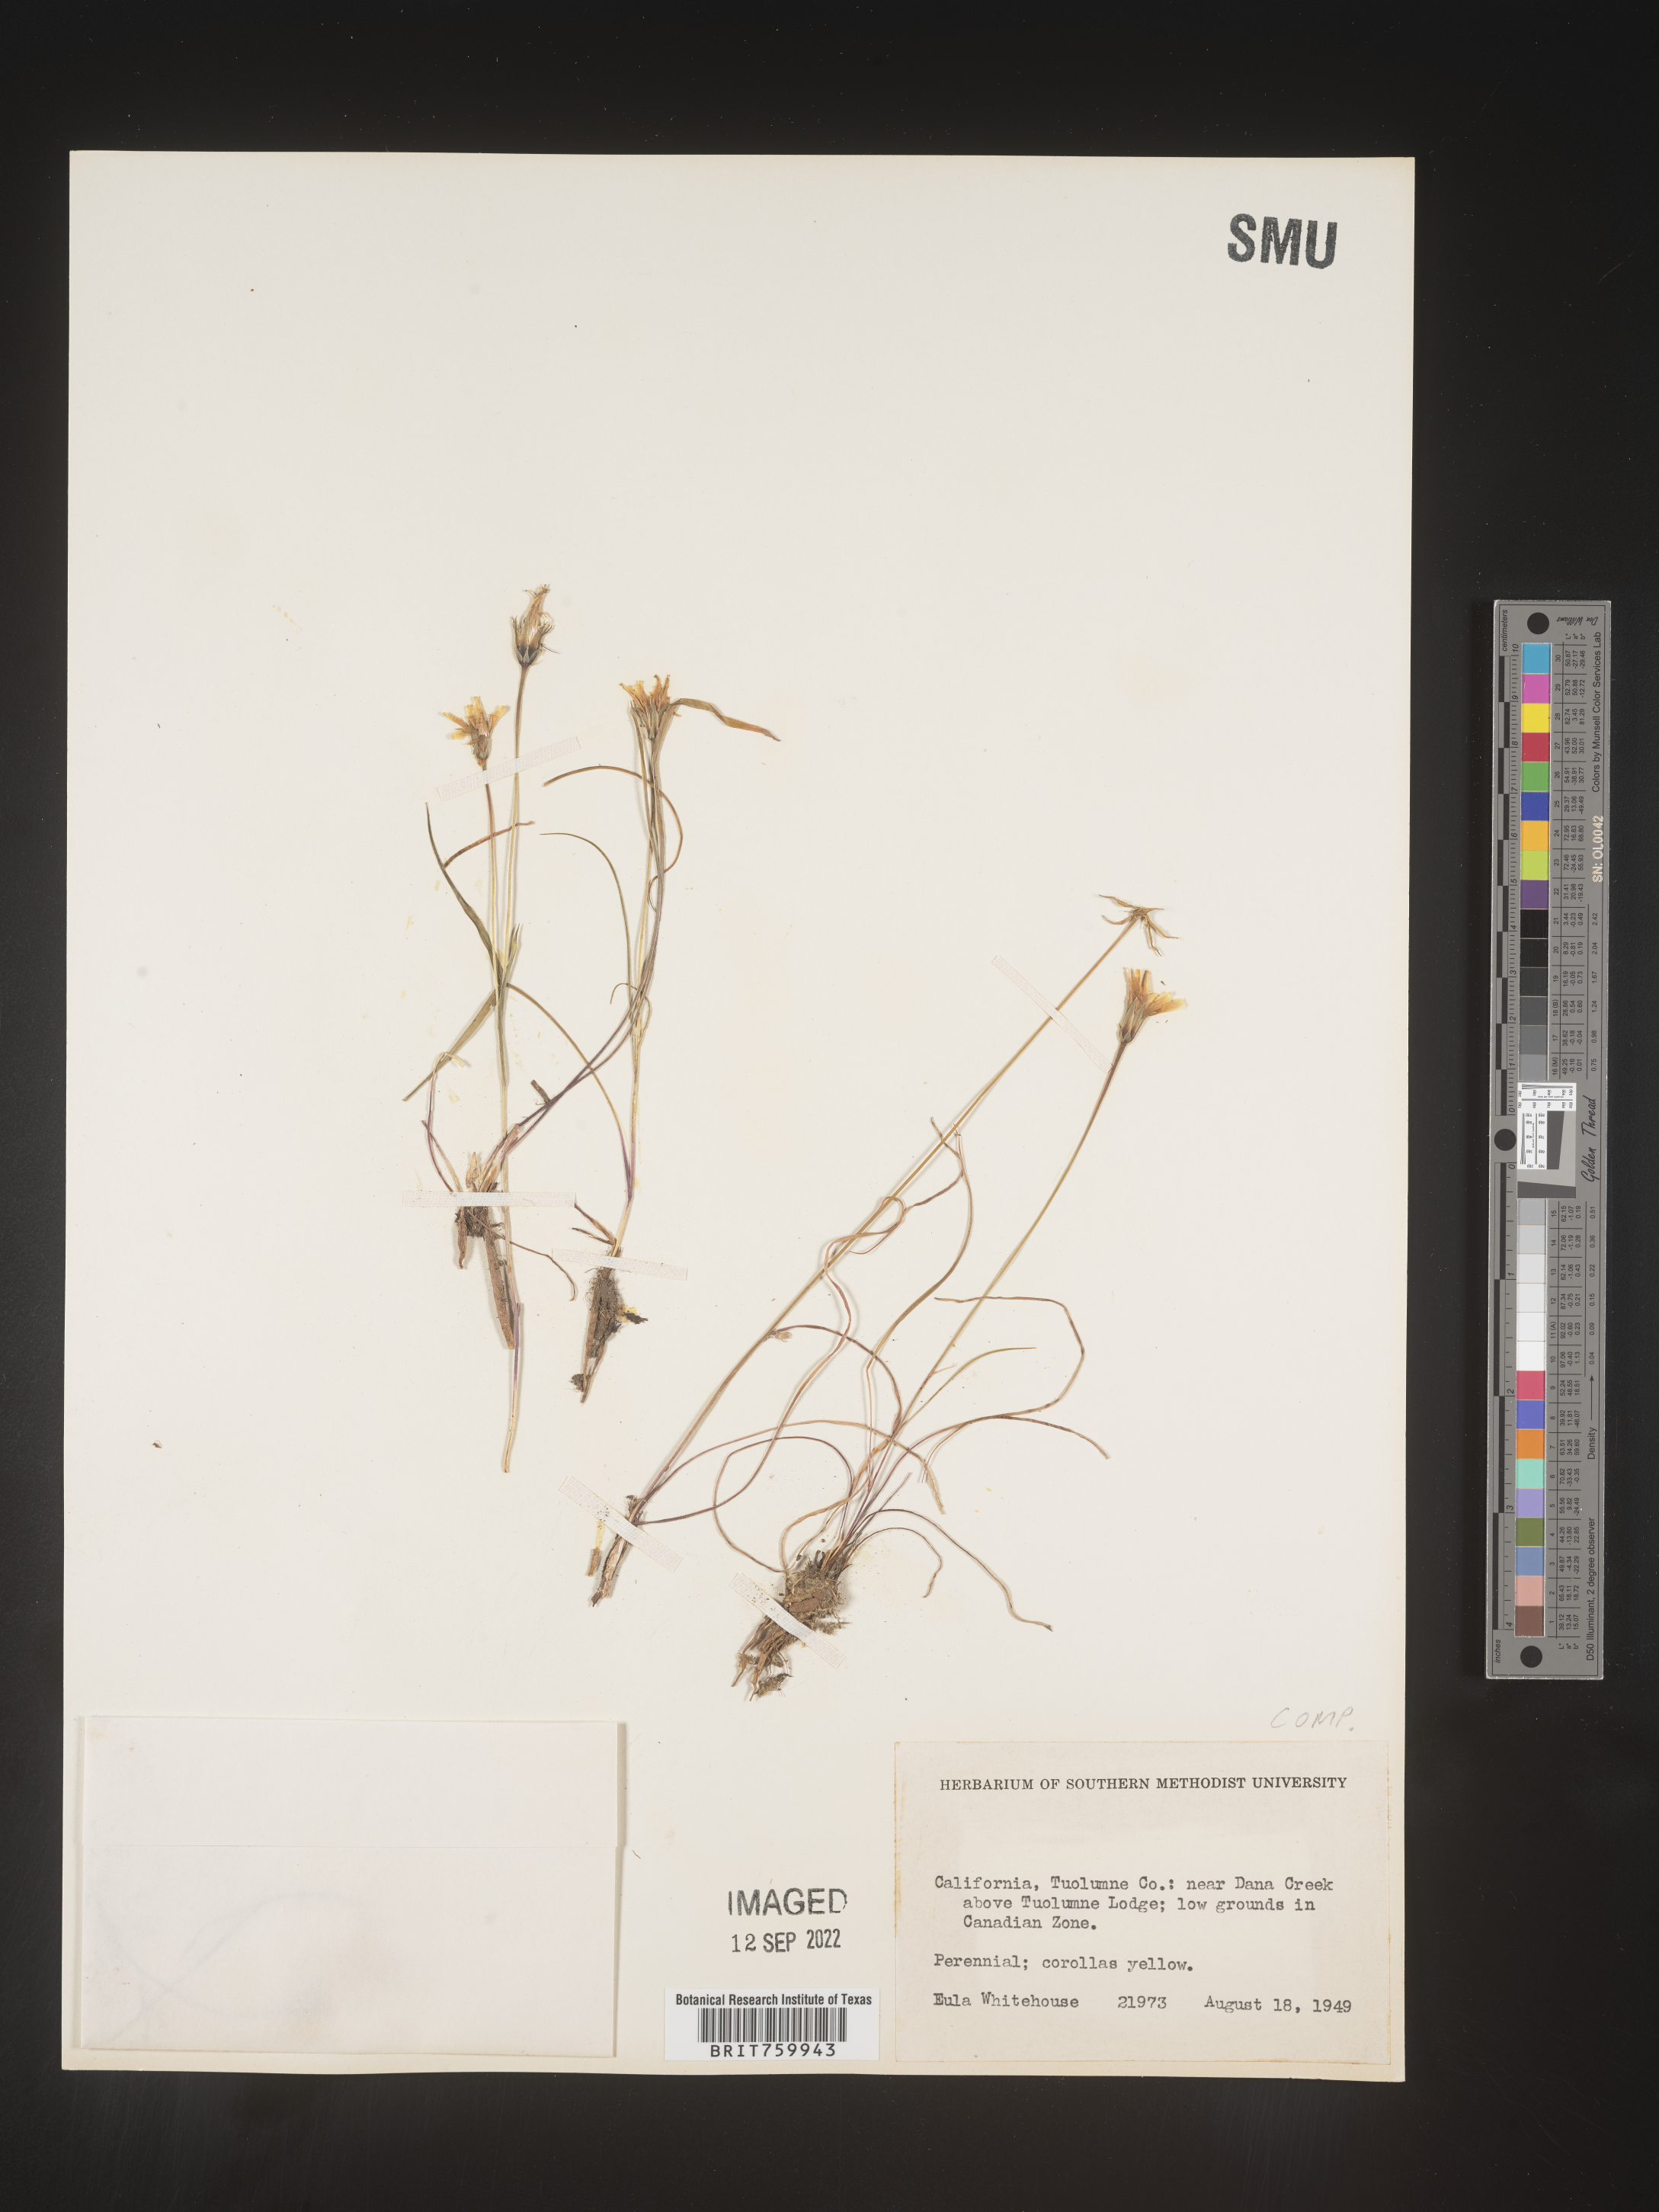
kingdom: Plantae
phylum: Tracheophyta
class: Magnoliopsida
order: Asterales
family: Asteraceae
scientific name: Asteraceae
